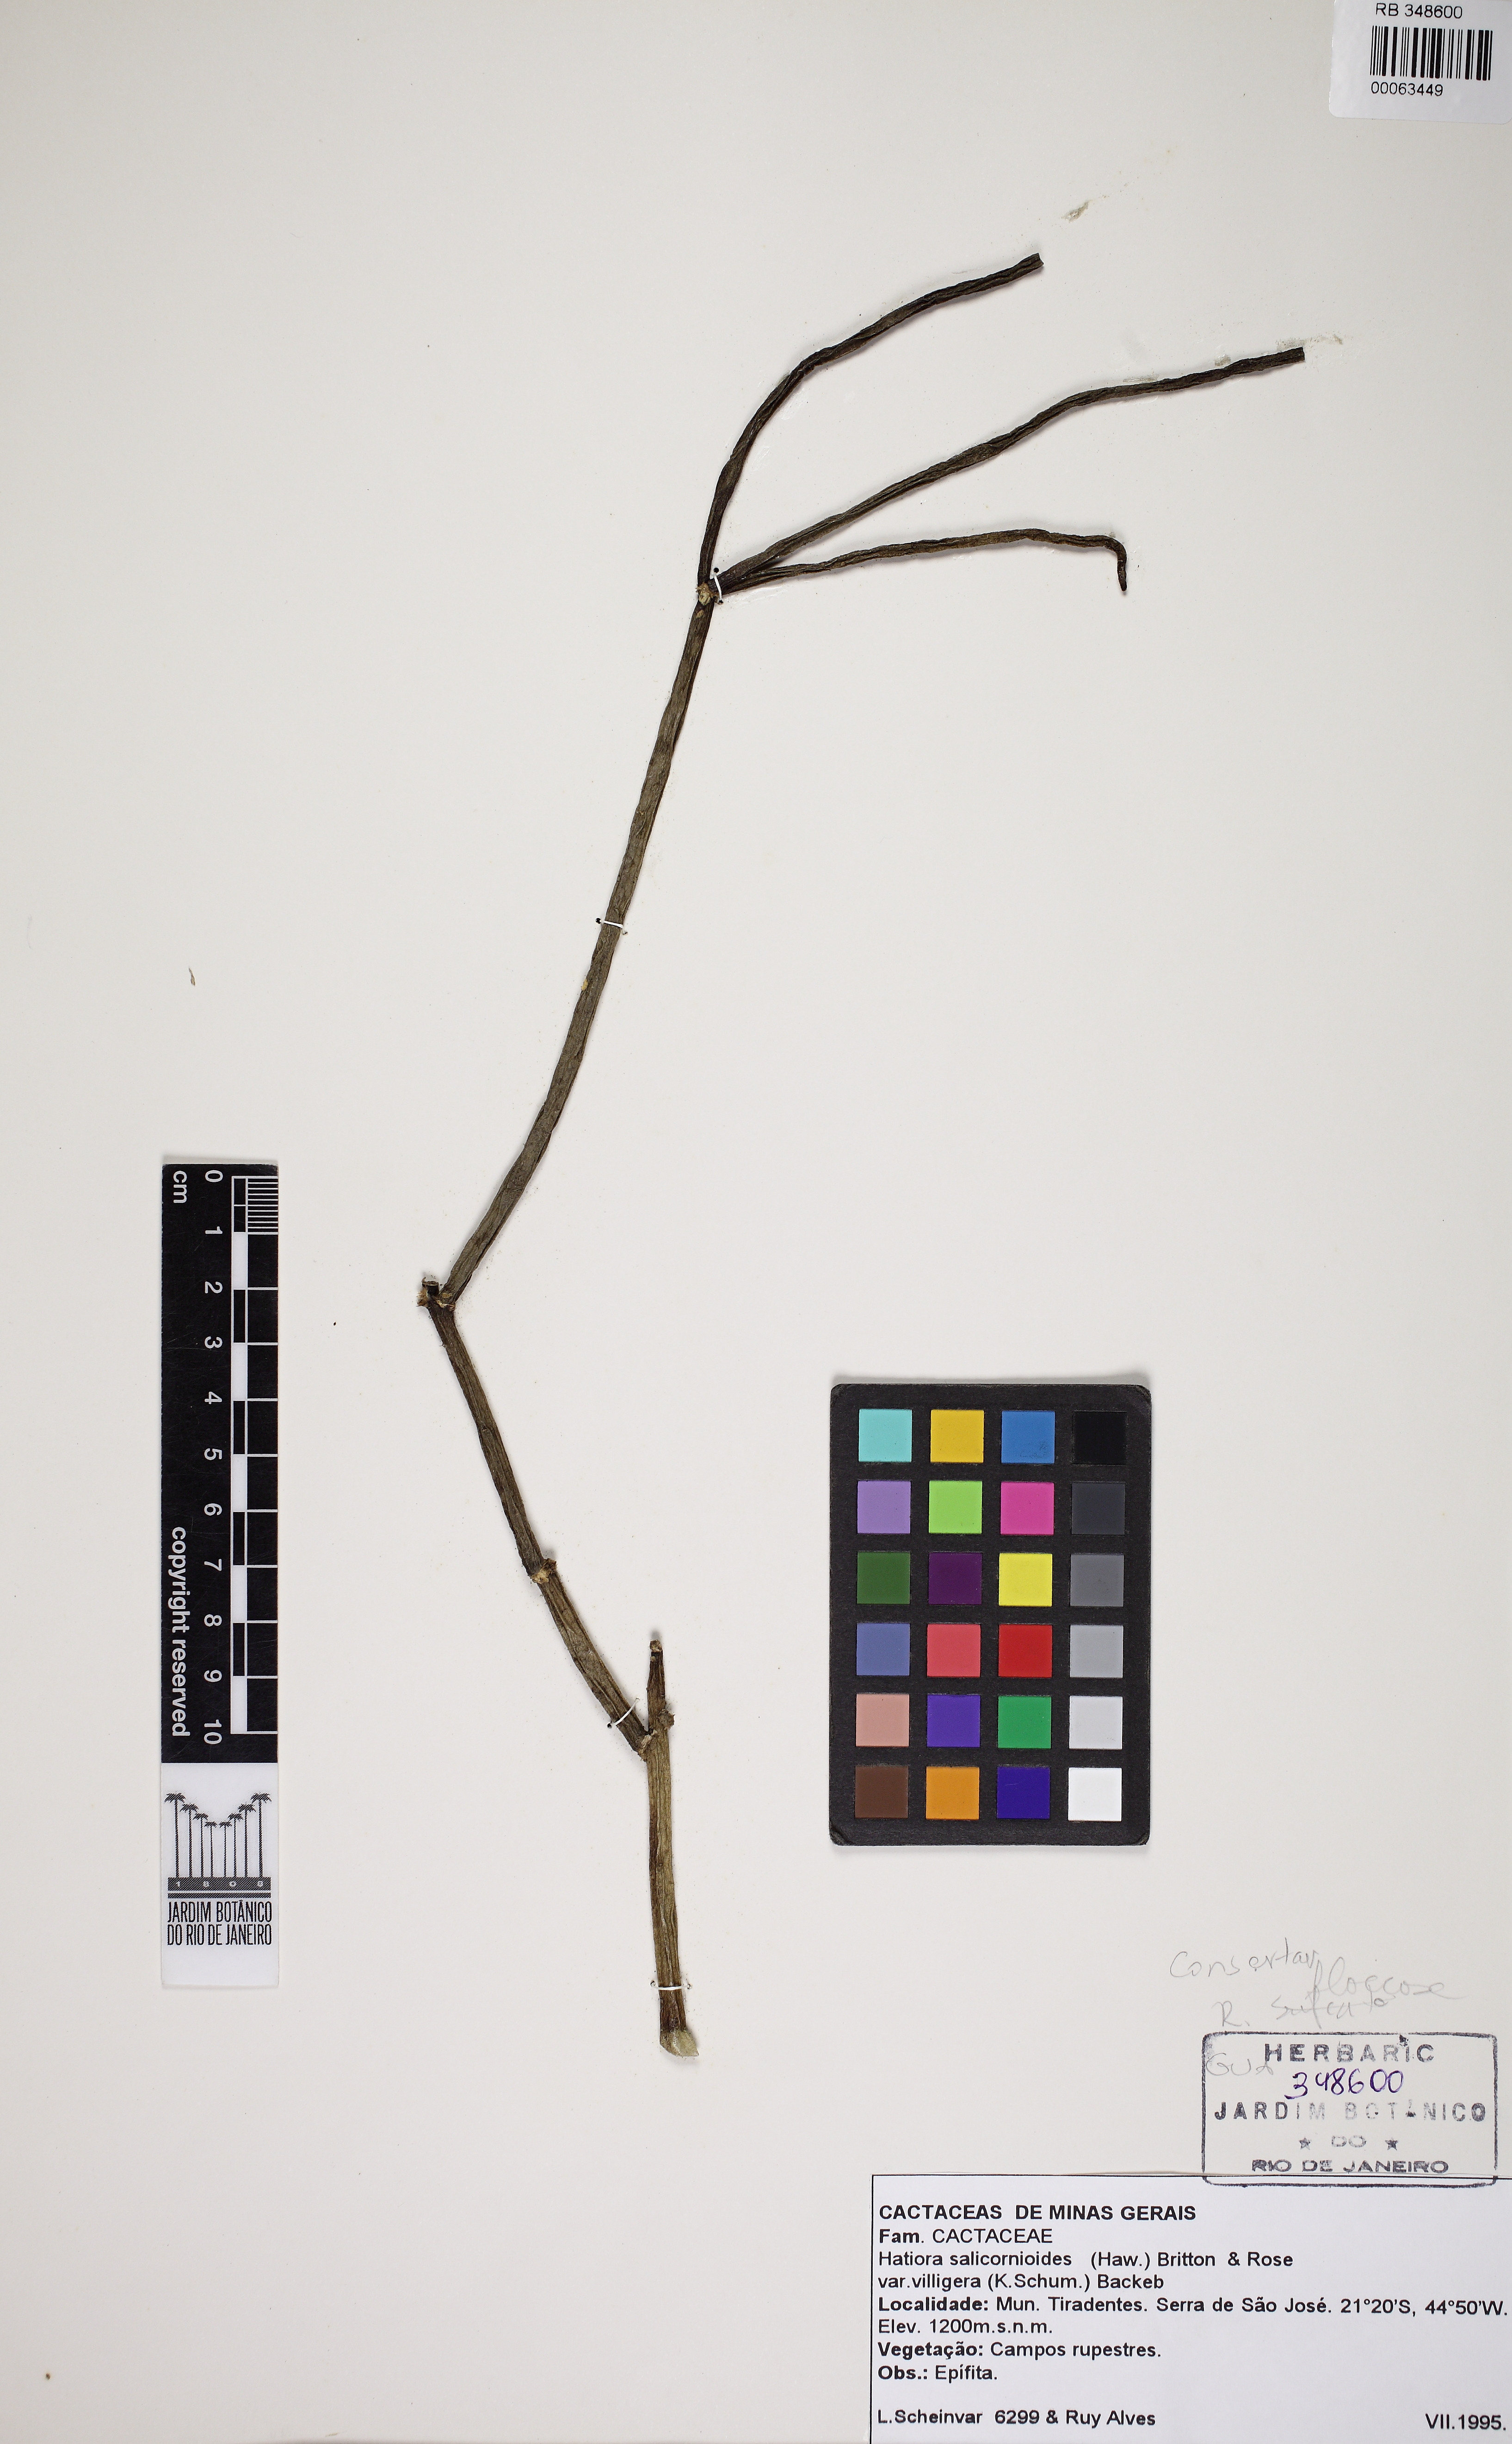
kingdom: Plantae
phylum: Tracheophyta
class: Magnoliopsida
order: Caryophyllales
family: Cactaceae
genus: Rhipsalis
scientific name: Rhipsalis floccosa
